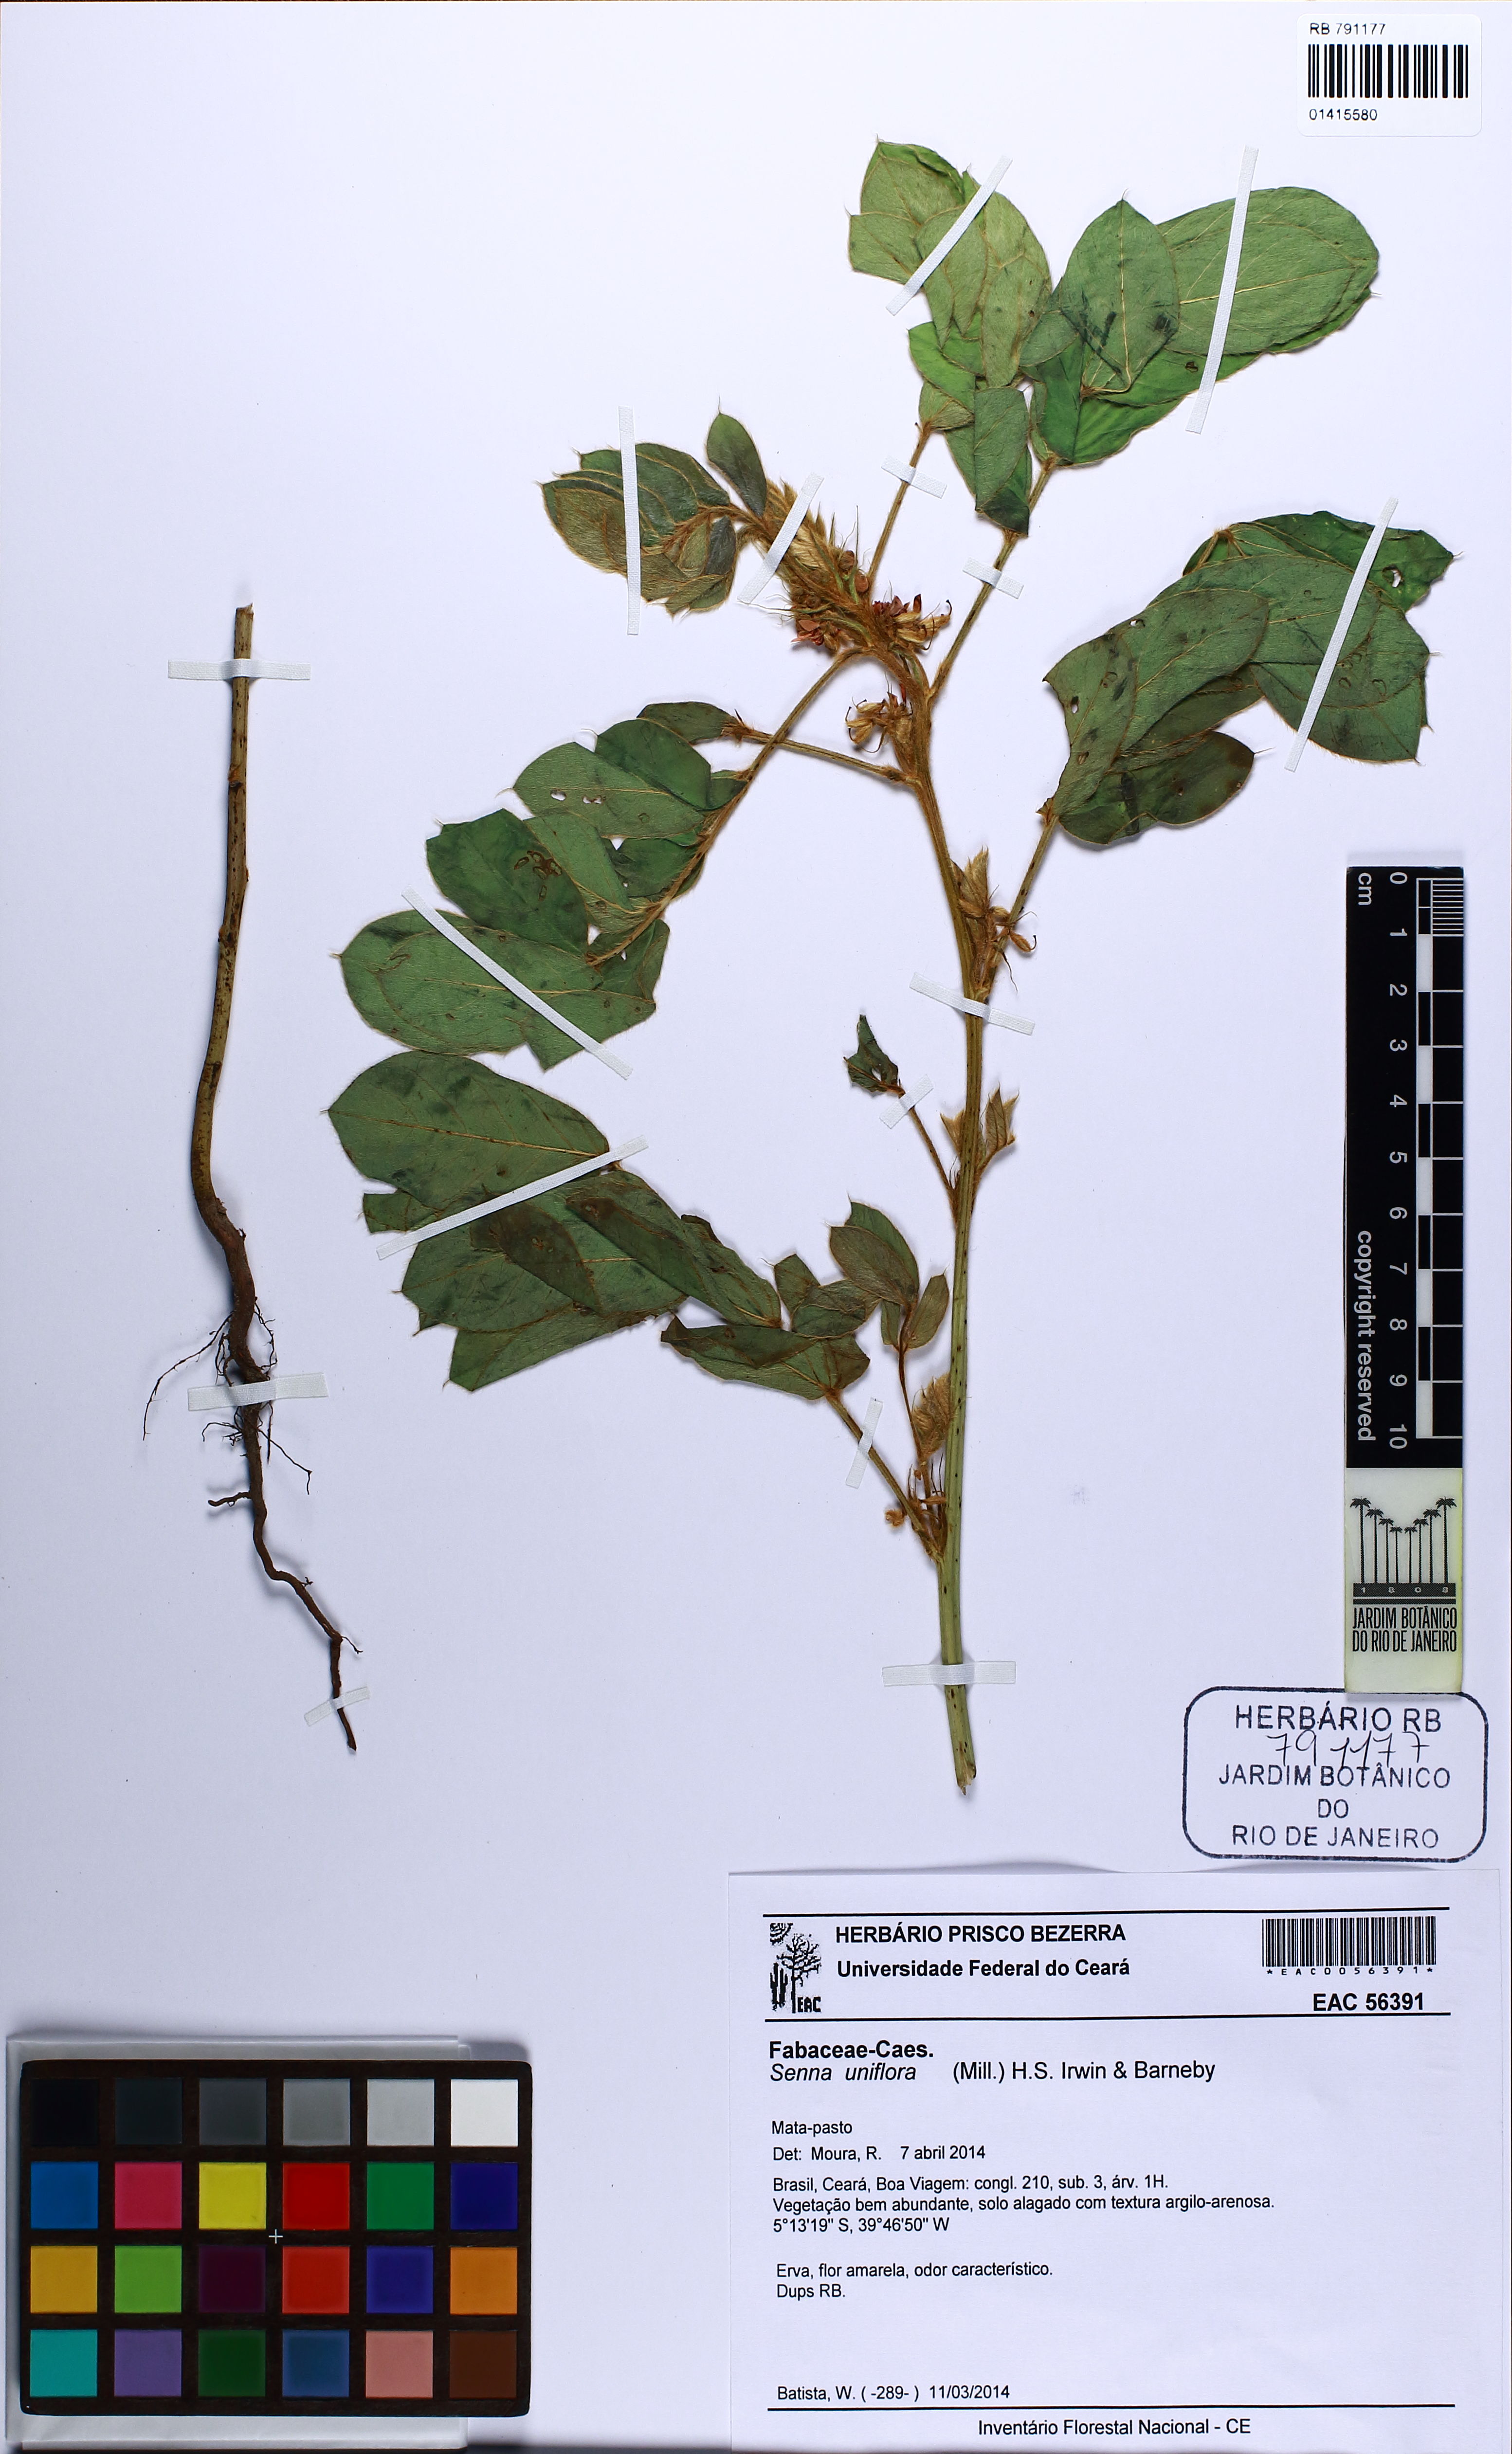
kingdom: Plantae
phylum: Tracheophyta
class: Magnoliopsida
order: Fabales
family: Fabaceae
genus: Senna
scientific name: Senna uniflora
